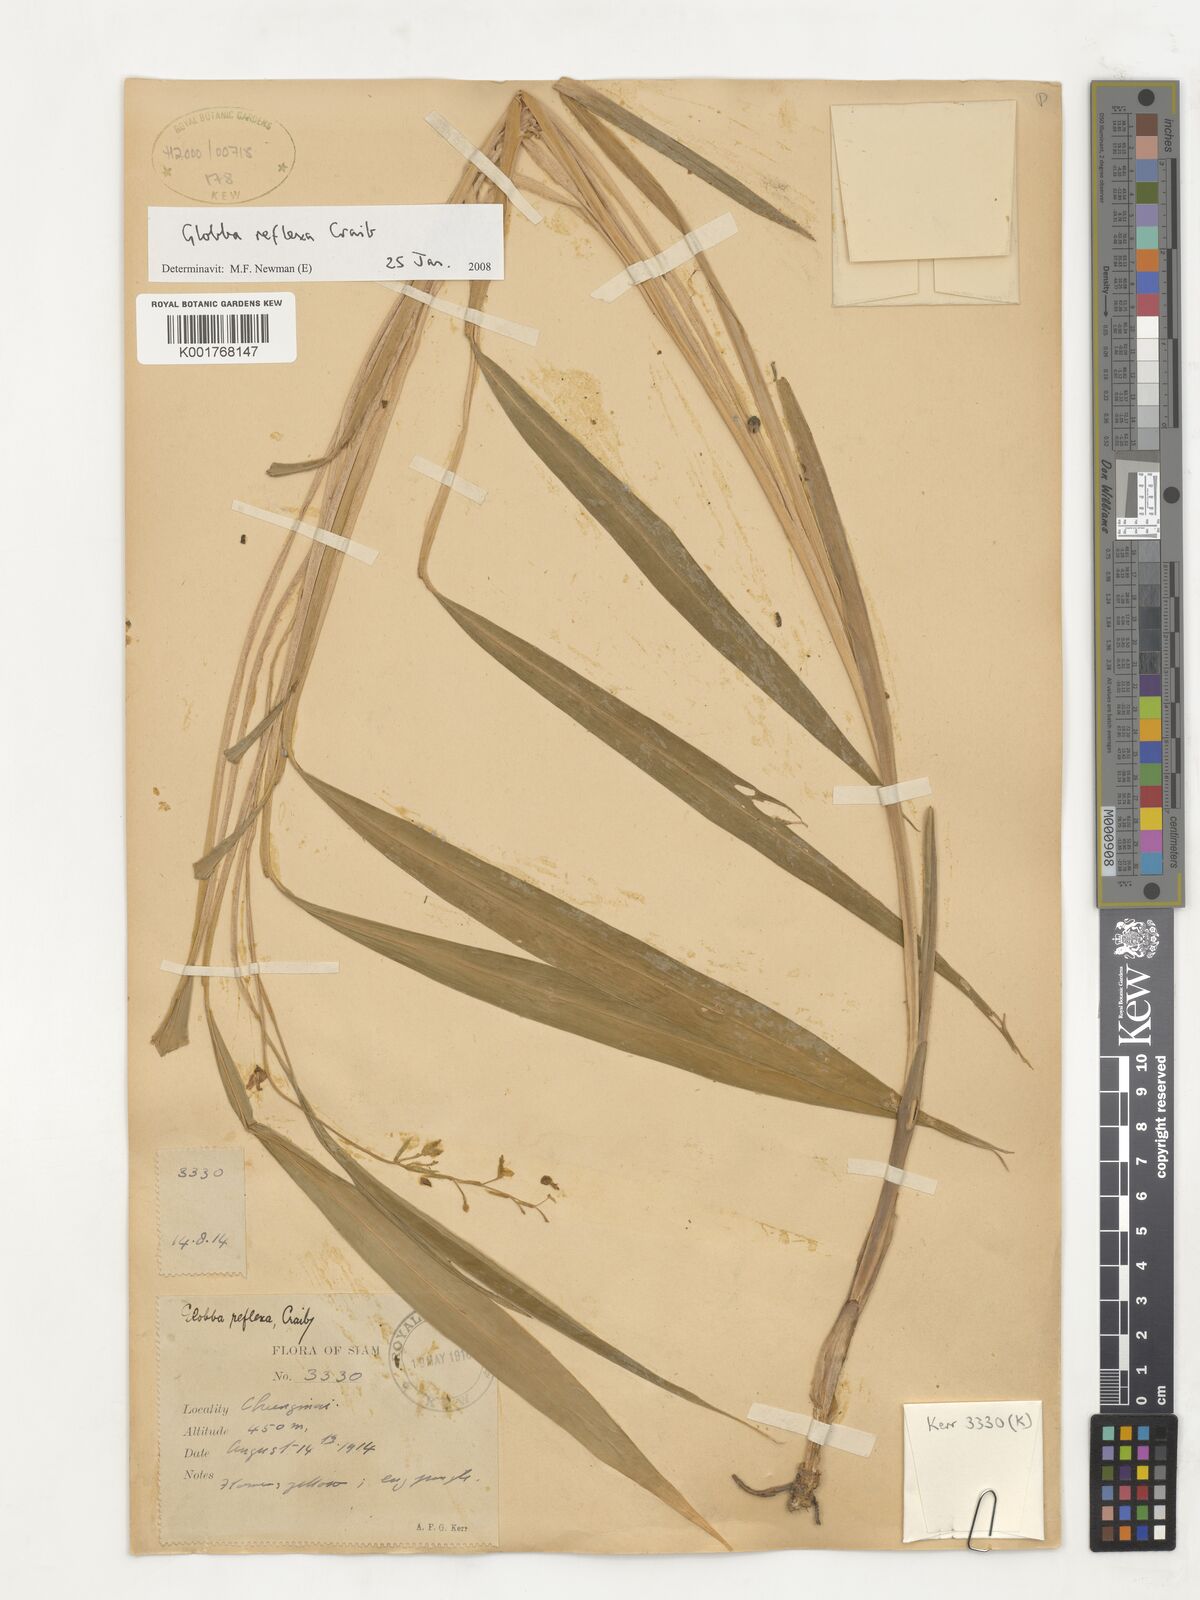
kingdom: Plantae
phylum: Tracheophyta
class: Liliopsida
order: Zingiberales
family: Zingiberaceae
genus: Globba
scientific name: Globba reflexa
